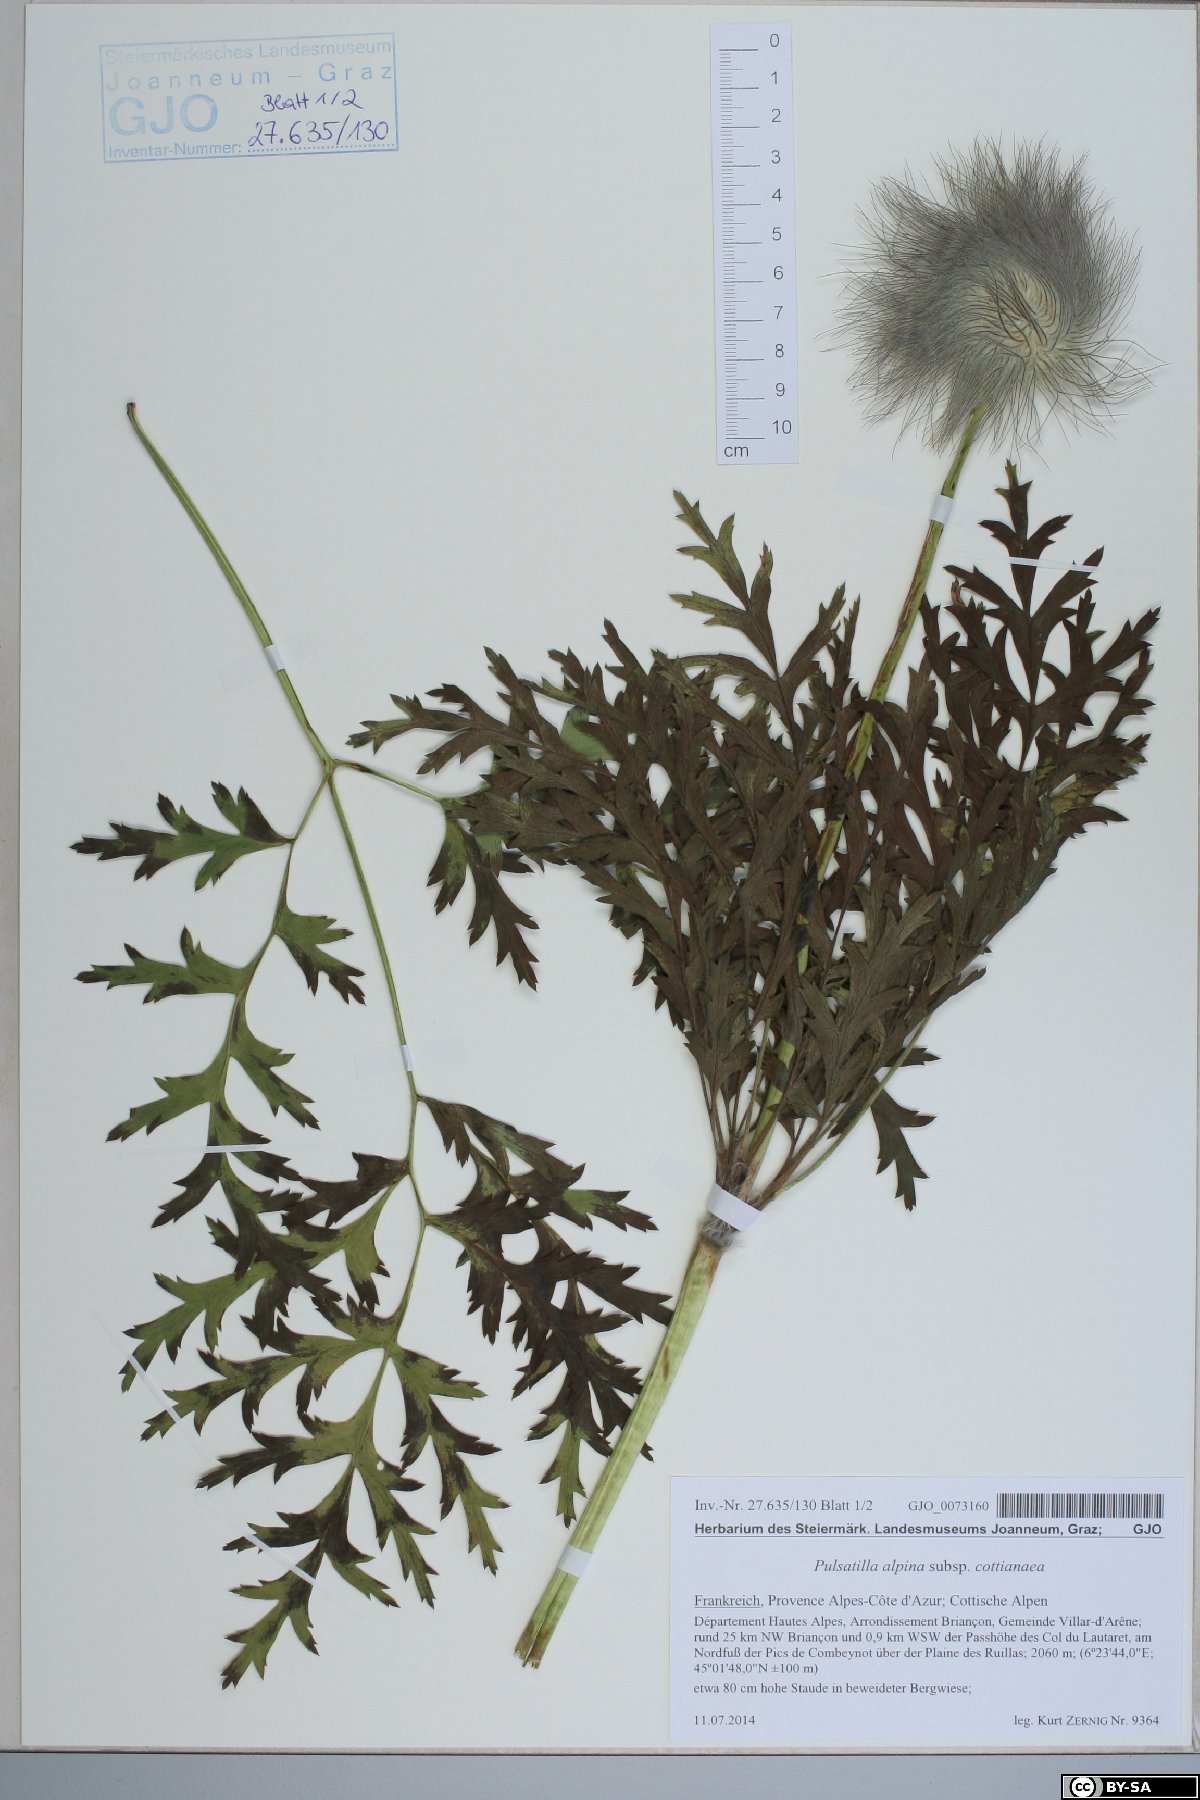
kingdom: Plantae
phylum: Tracheophyta
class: Magnoliopsida
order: Ranunculales
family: Ranunculaceae
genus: Pulsatilla
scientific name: Pulsatilla alpina
